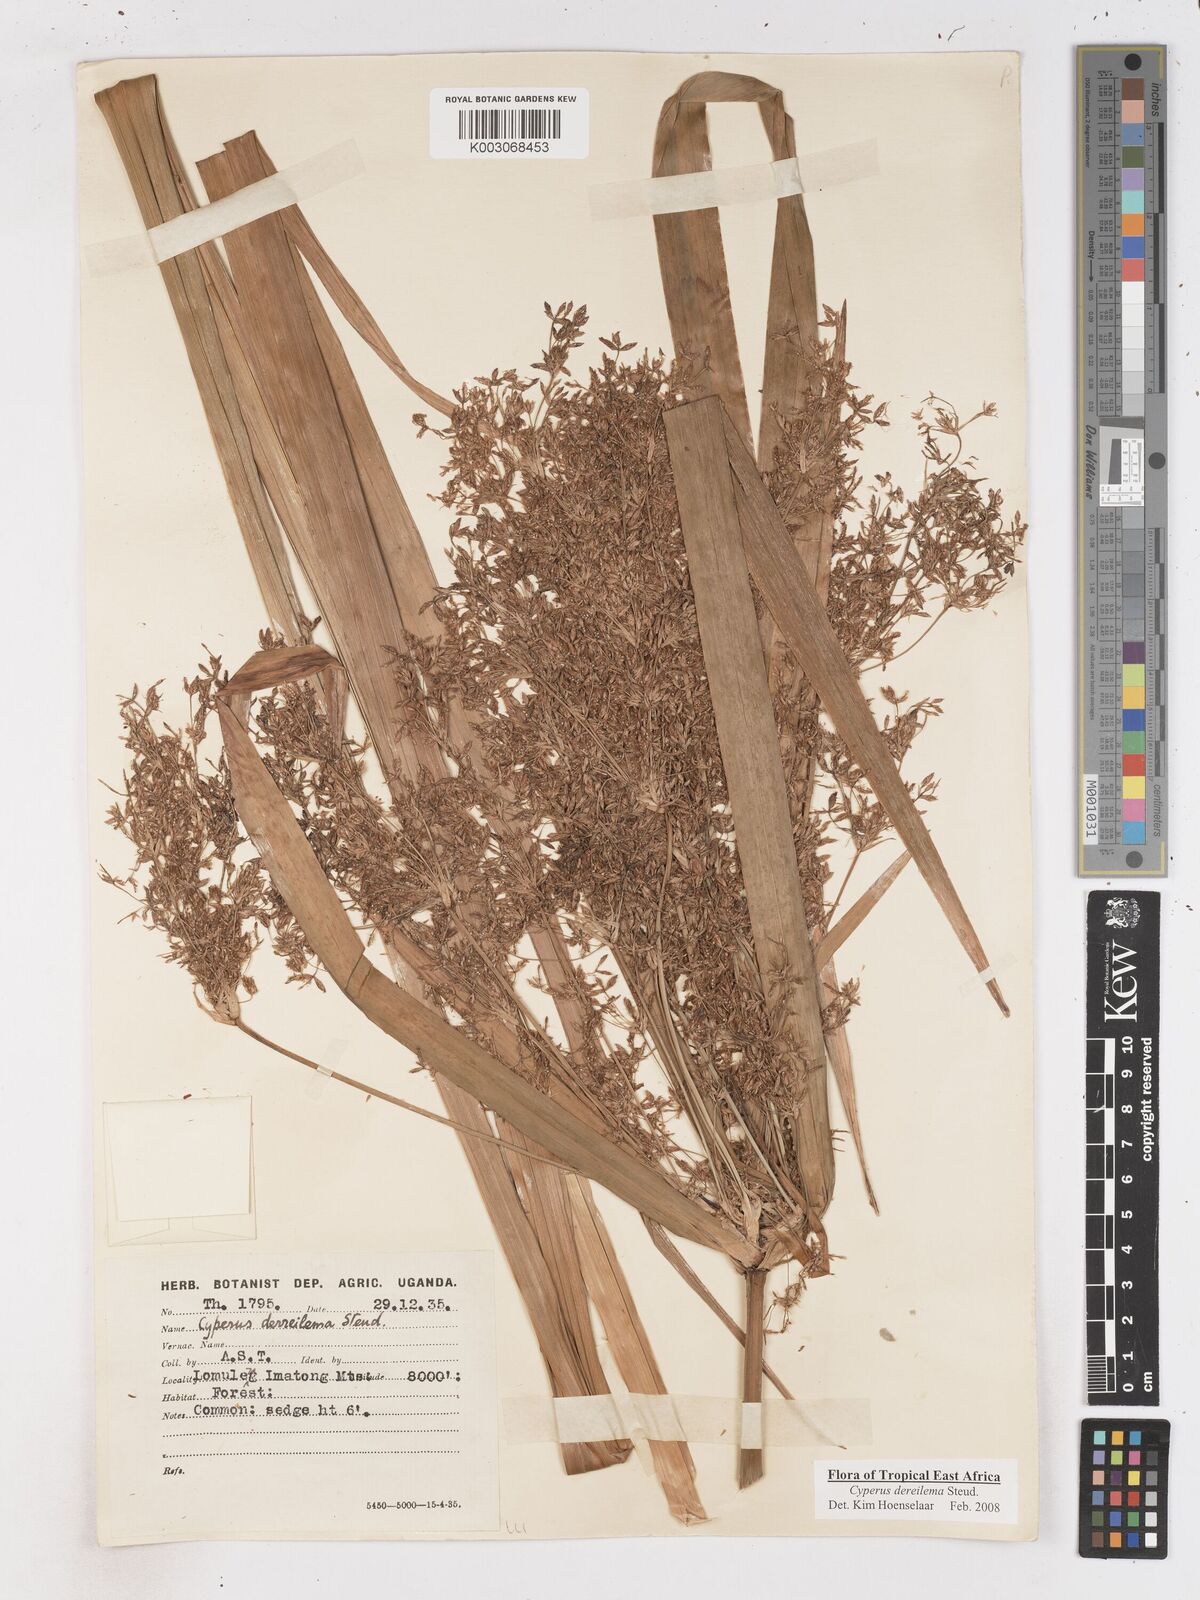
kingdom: Plantae
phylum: Tracheophyta
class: Liliopsida
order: Poales
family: Cyperaceae
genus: Cyperus
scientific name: Cyperus derreilema
